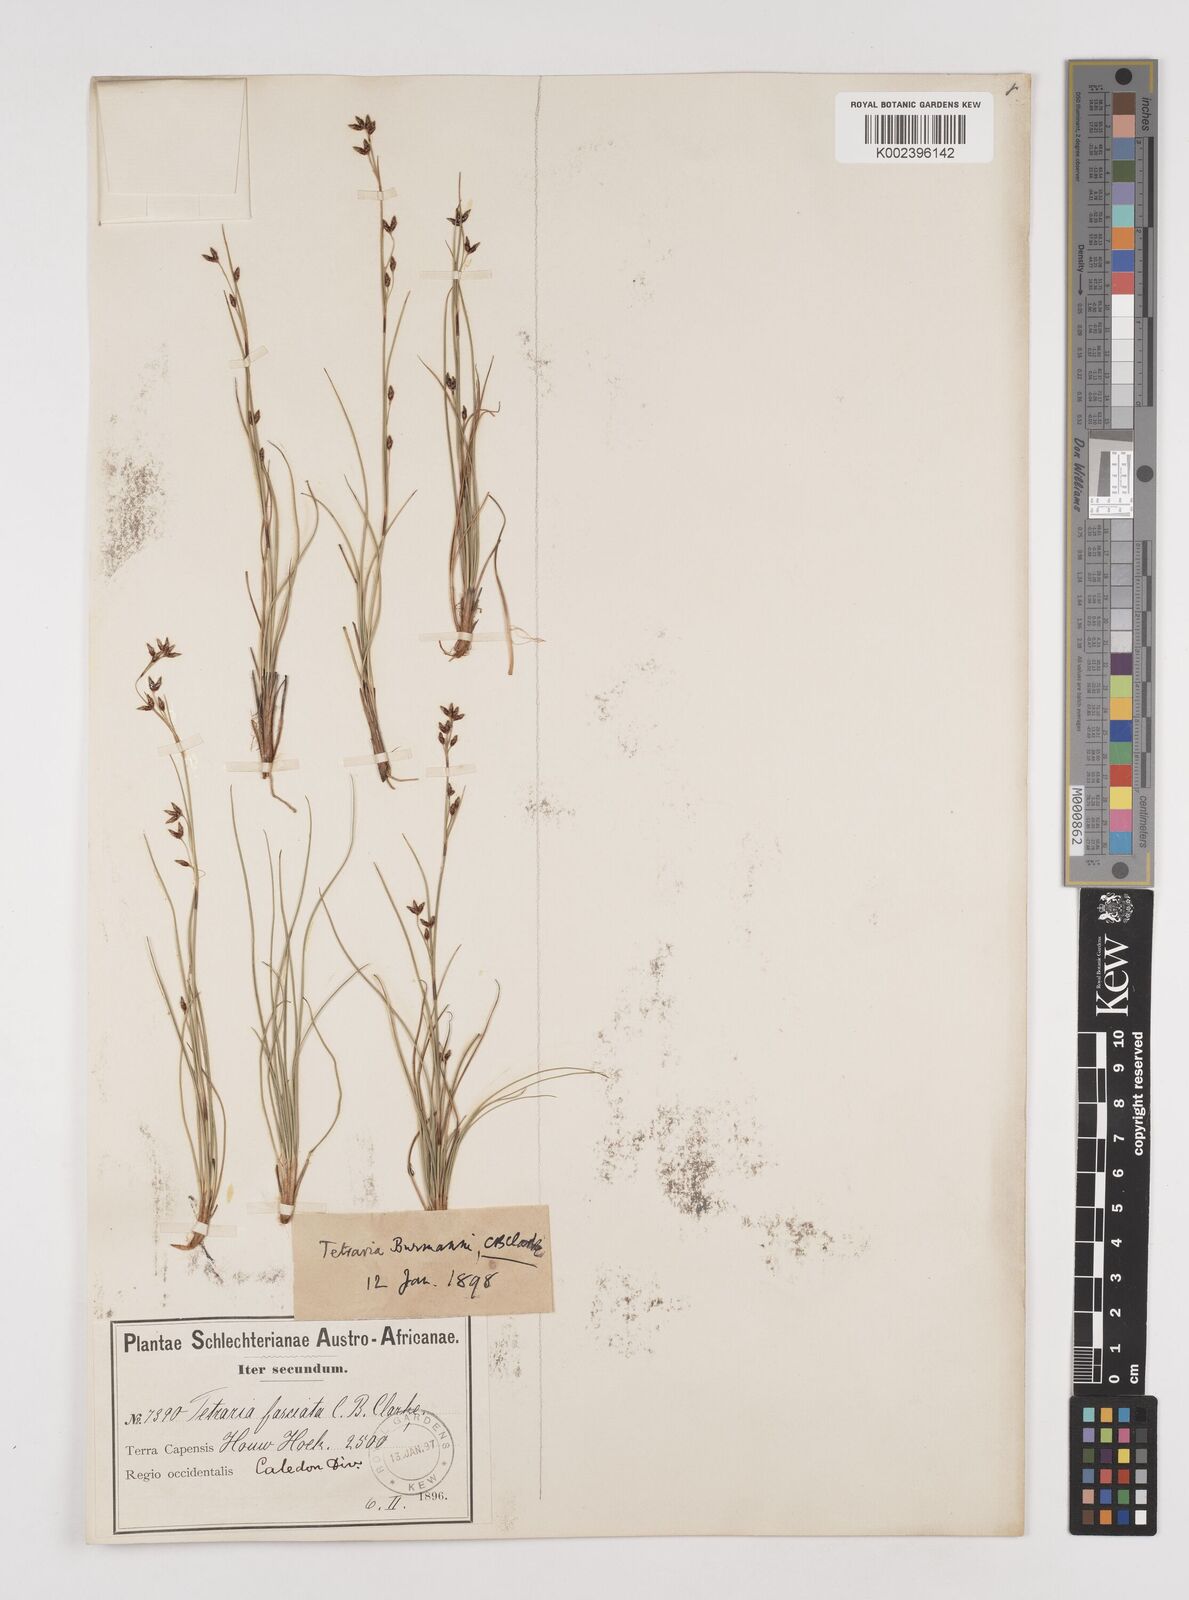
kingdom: Plantae
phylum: Tracheophyta
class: Liliopsida
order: Poales
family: Cyperaceae
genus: Tetraria
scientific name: Tetraria burmanni
